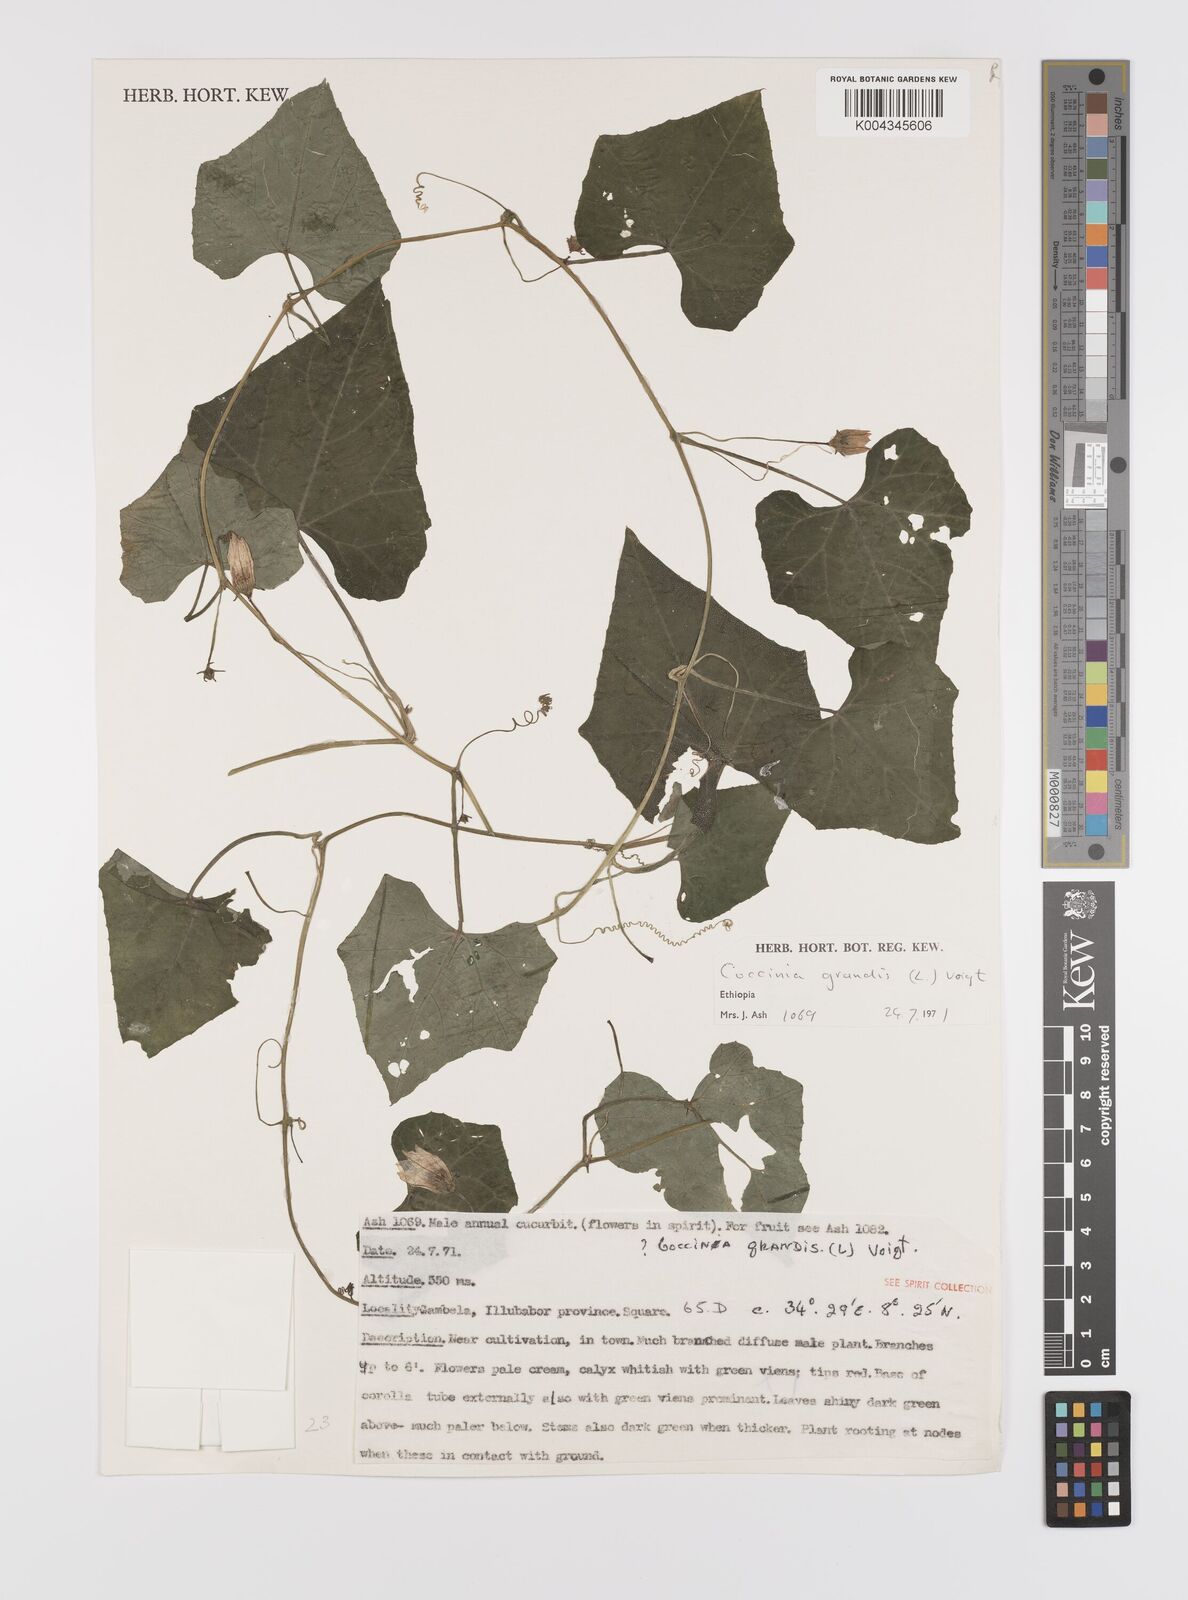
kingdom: Plantae
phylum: Tracheophyta
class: Magnoliopsida
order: Cucurbitales
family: Cucurbitaceae
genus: Coccinia
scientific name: Coccinia grandis
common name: Ivy gourd
